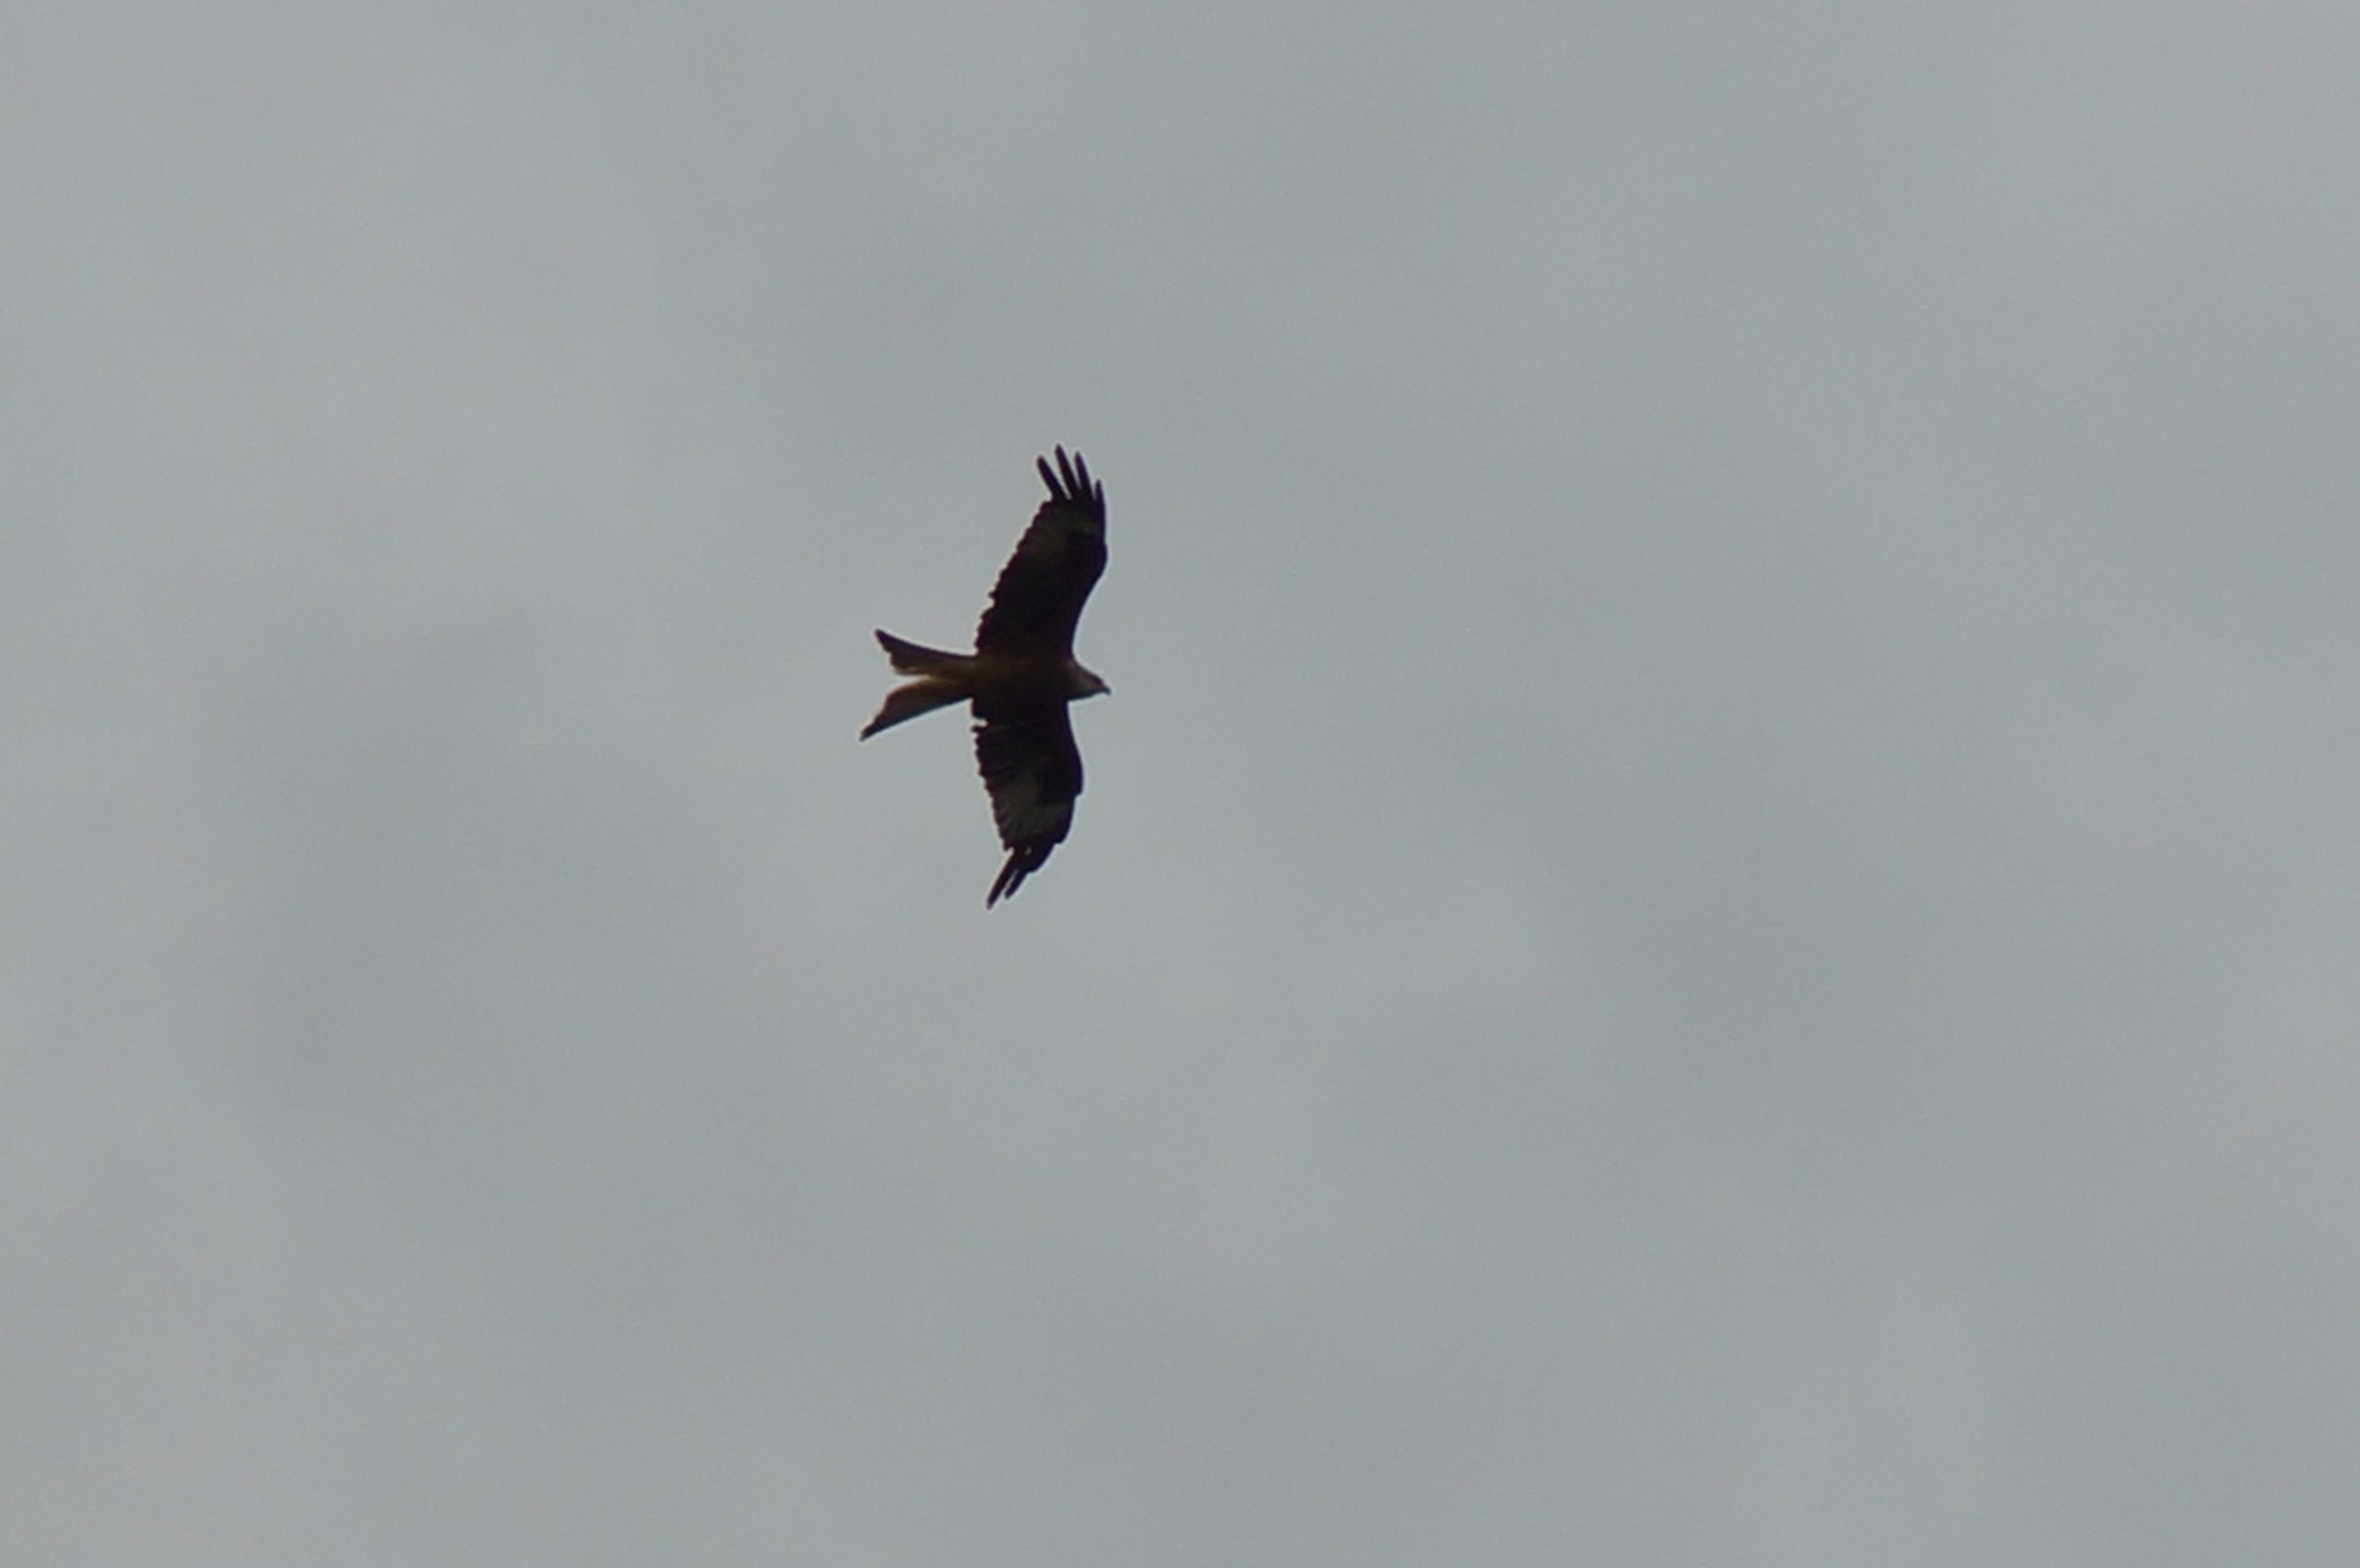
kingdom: Animalia
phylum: Chordata
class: Aves
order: Accipitriformes
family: Accipitridae
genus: Milvus
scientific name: Milvus milvus
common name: Rød glente
